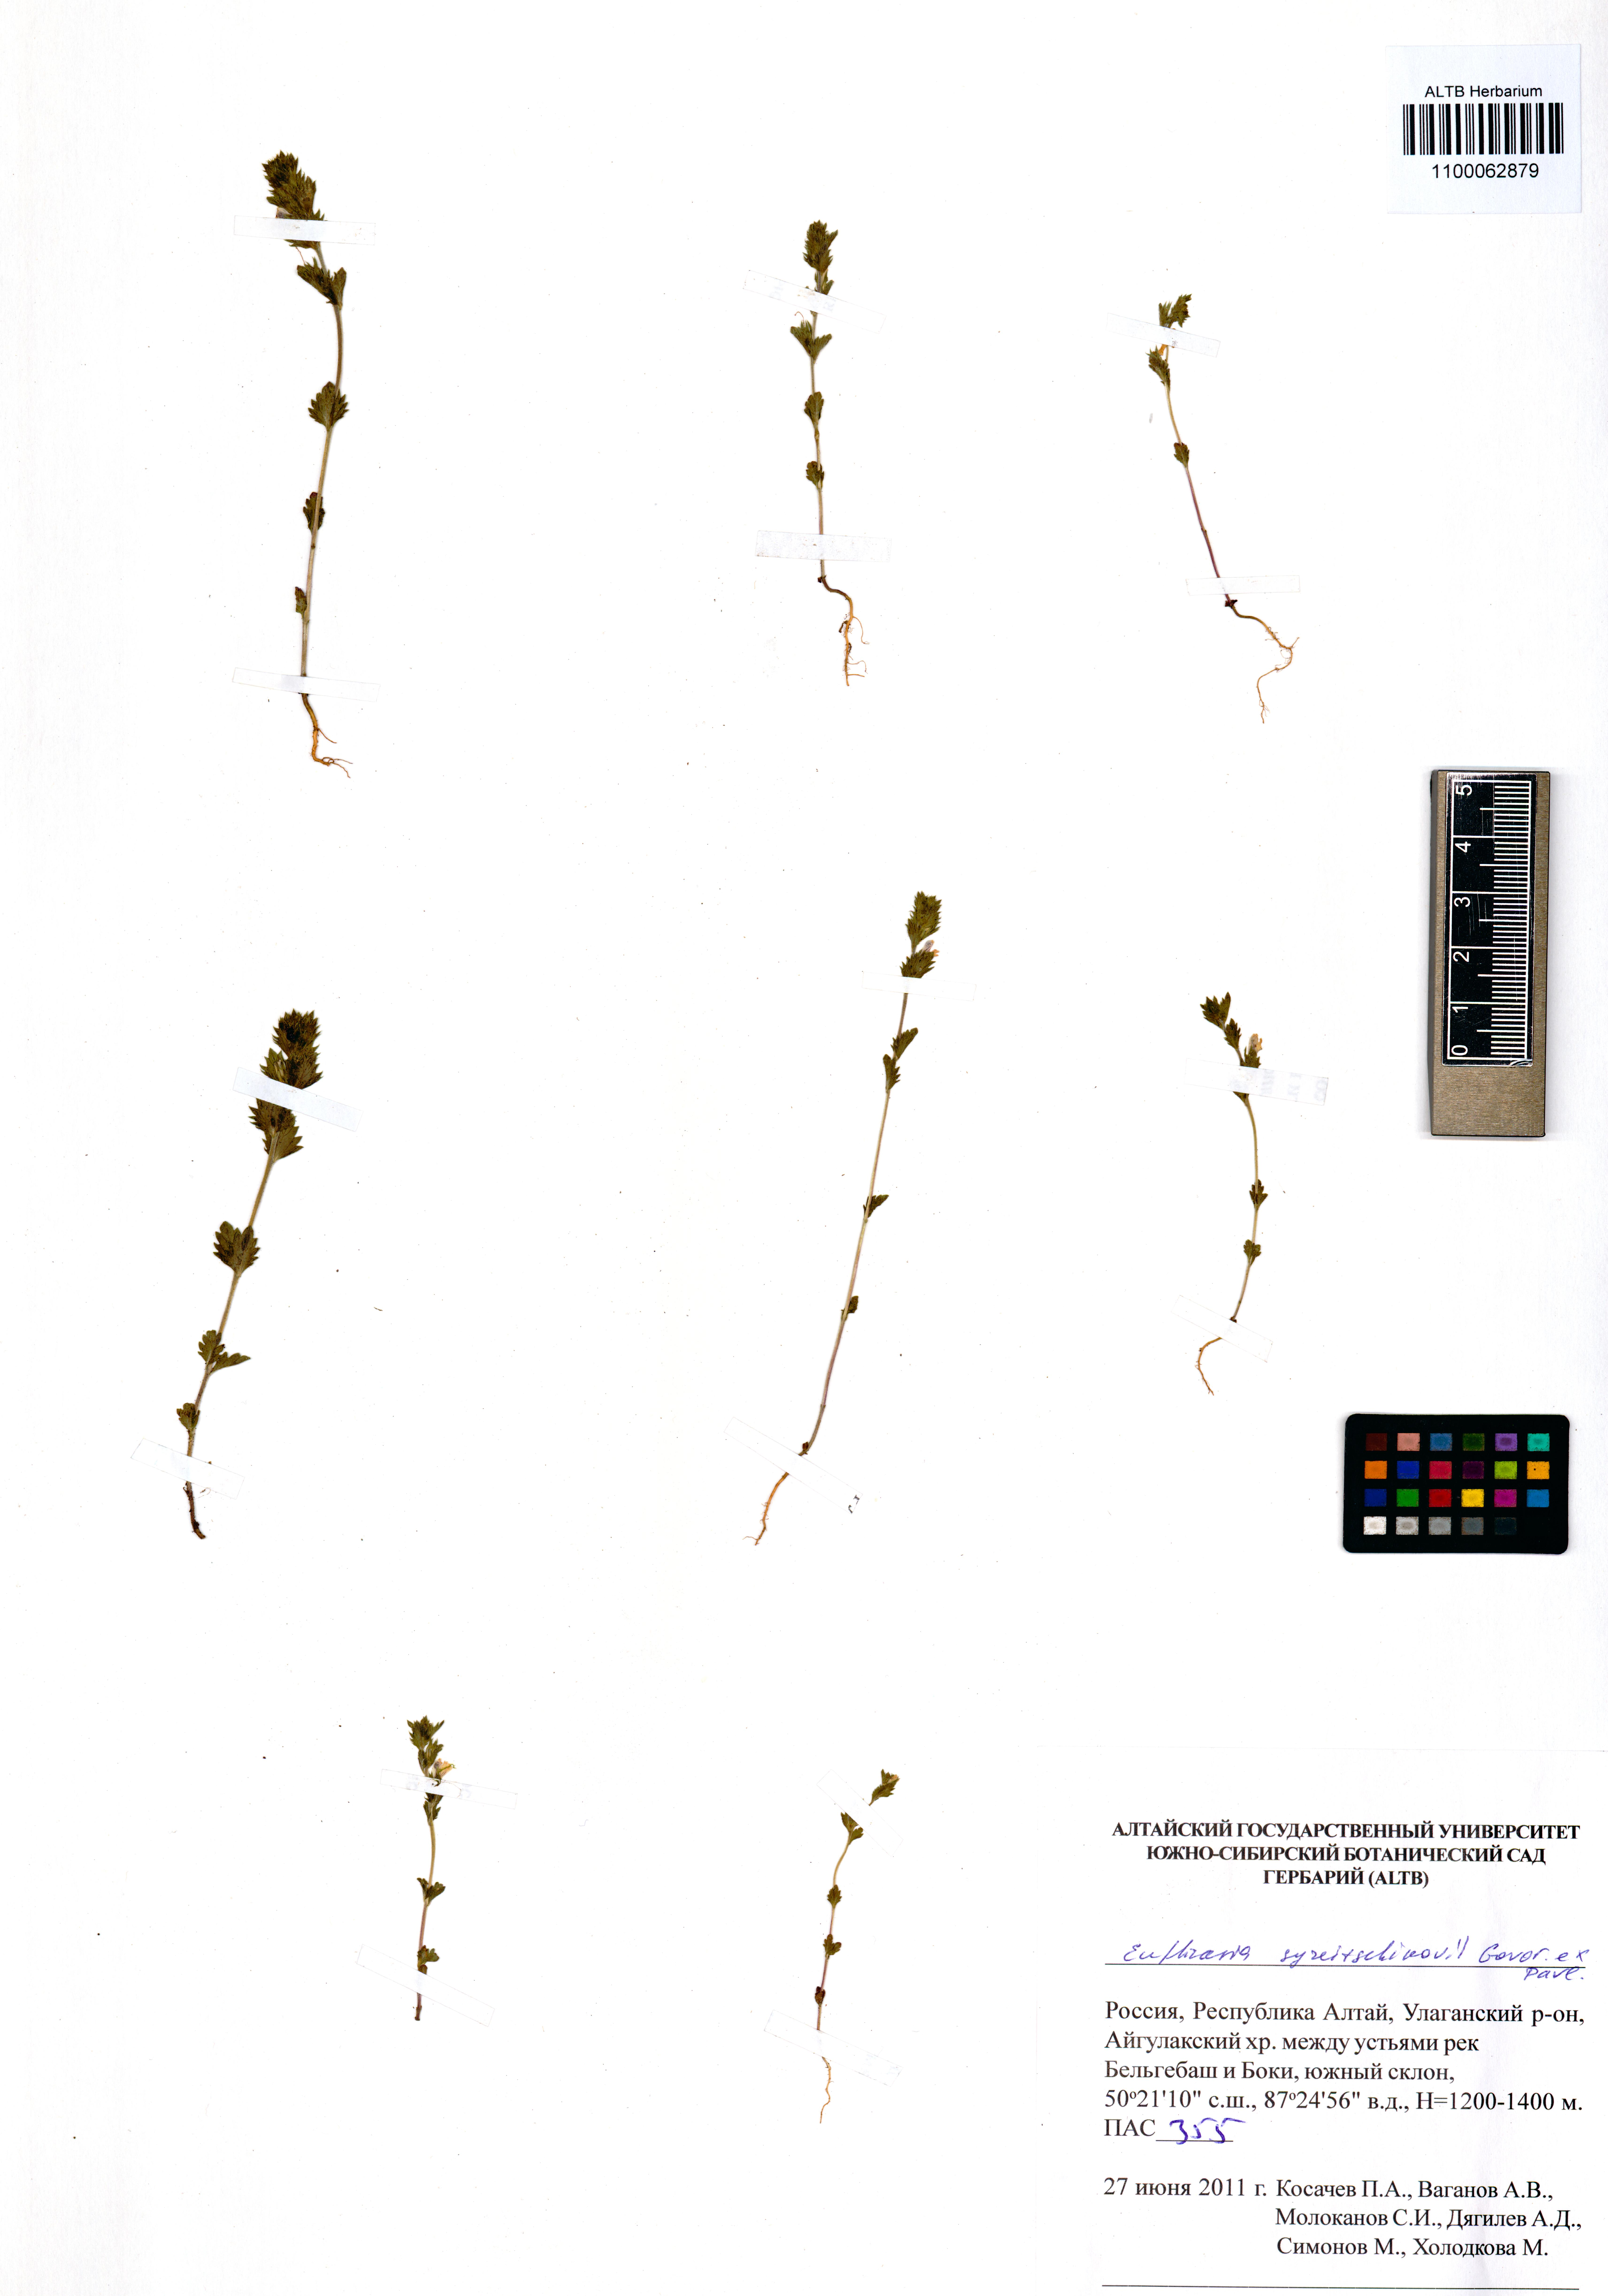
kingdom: Plantae
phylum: Tracheophyta
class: Magnoliopsida
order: Lamiales
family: Orobanchaceae
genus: Euphrasia
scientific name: Euphrasia syreitschikovii
